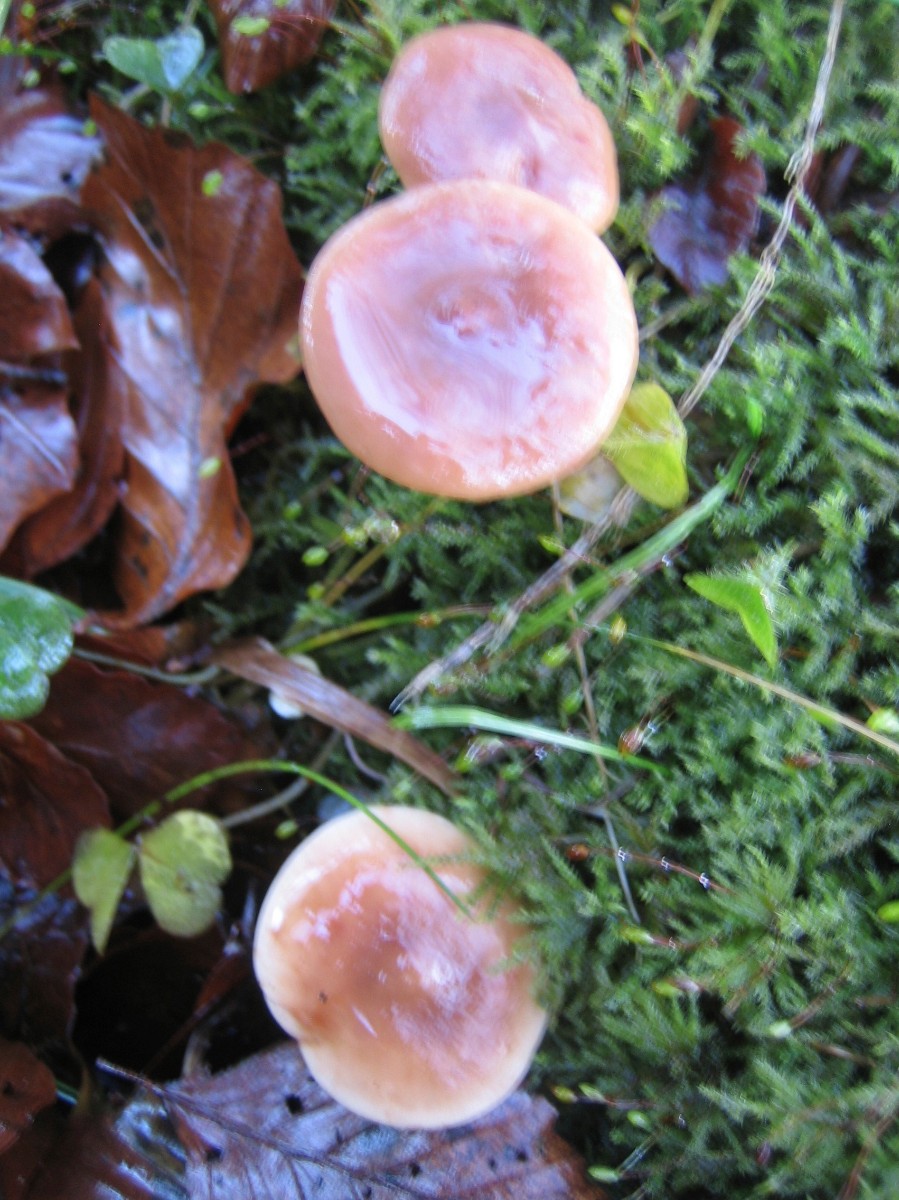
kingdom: Fungi
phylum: Basidiomycota
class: Agaricomycetes
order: Russulales
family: Russulaceae
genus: Lactarius
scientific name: Lactarius subdulcis
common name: sødlig mælkehat
